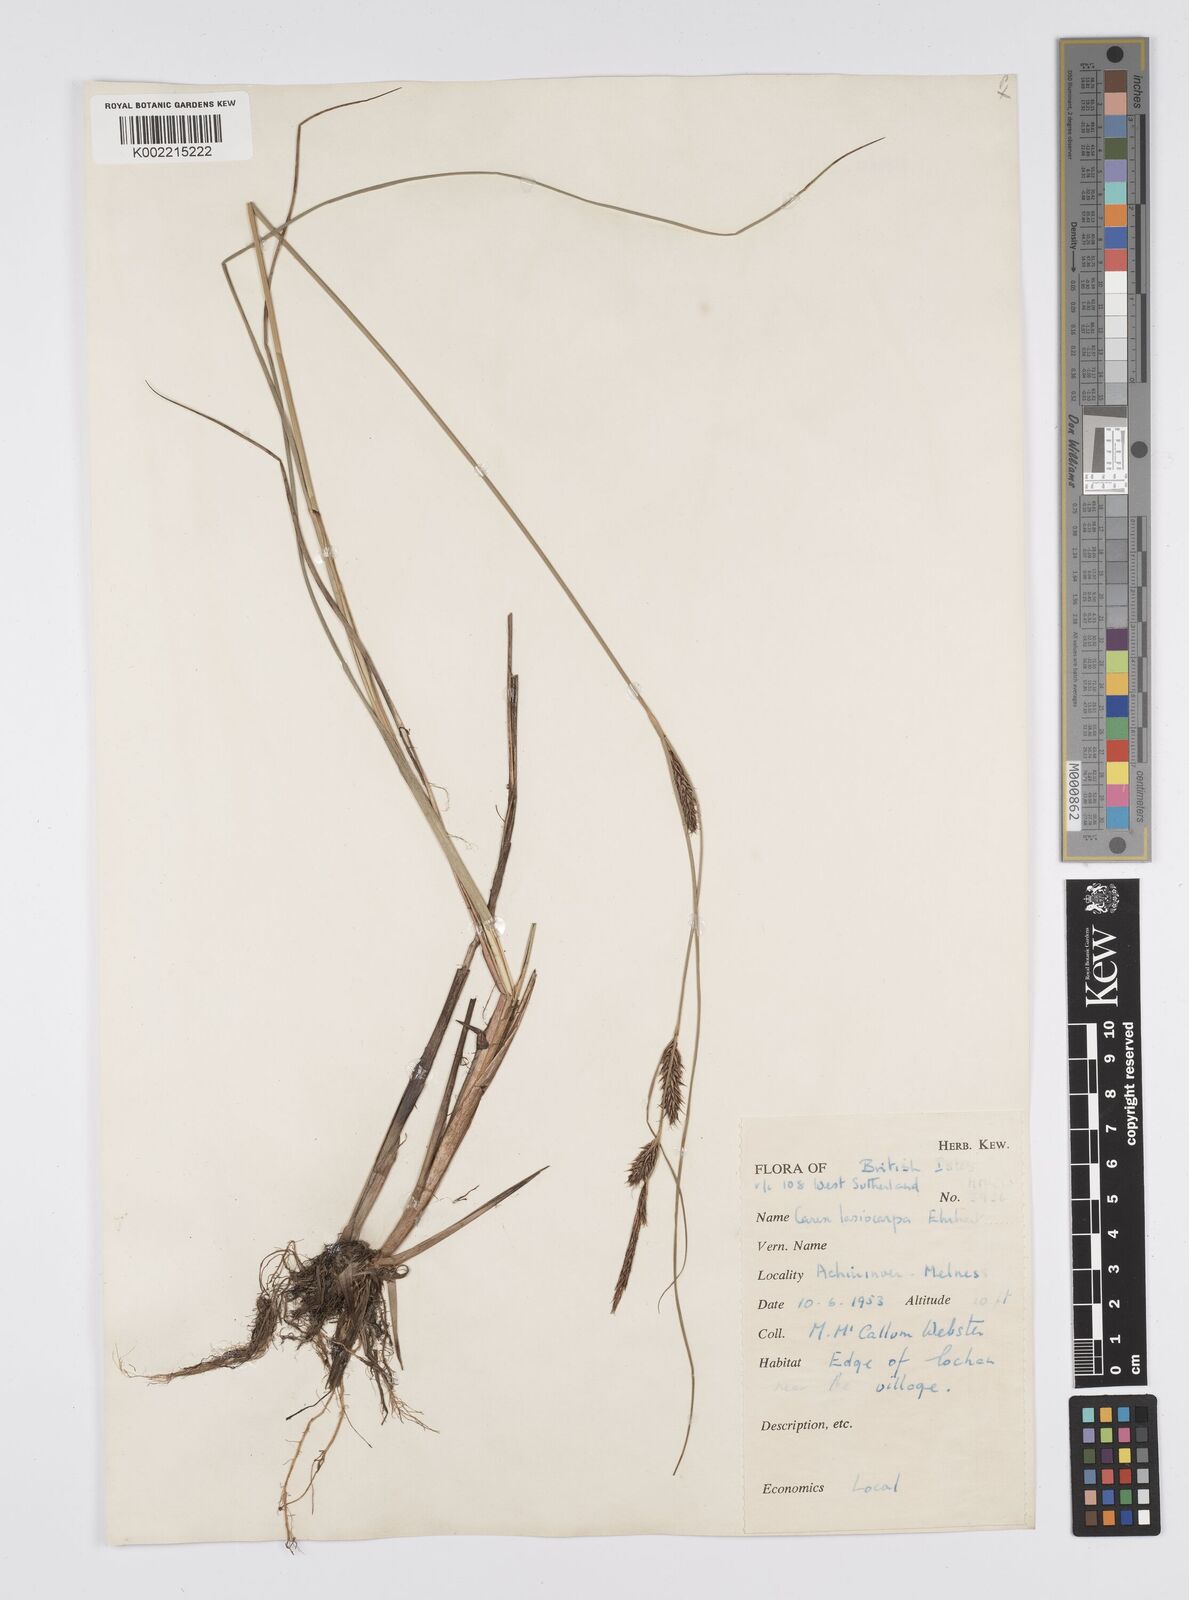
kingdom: Plantae
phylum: Tracheophyta
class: Liliopsida
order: Poales
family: Cyperaceae
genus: Carex
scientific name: Carex lasiocarpa
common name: Slender sedge
